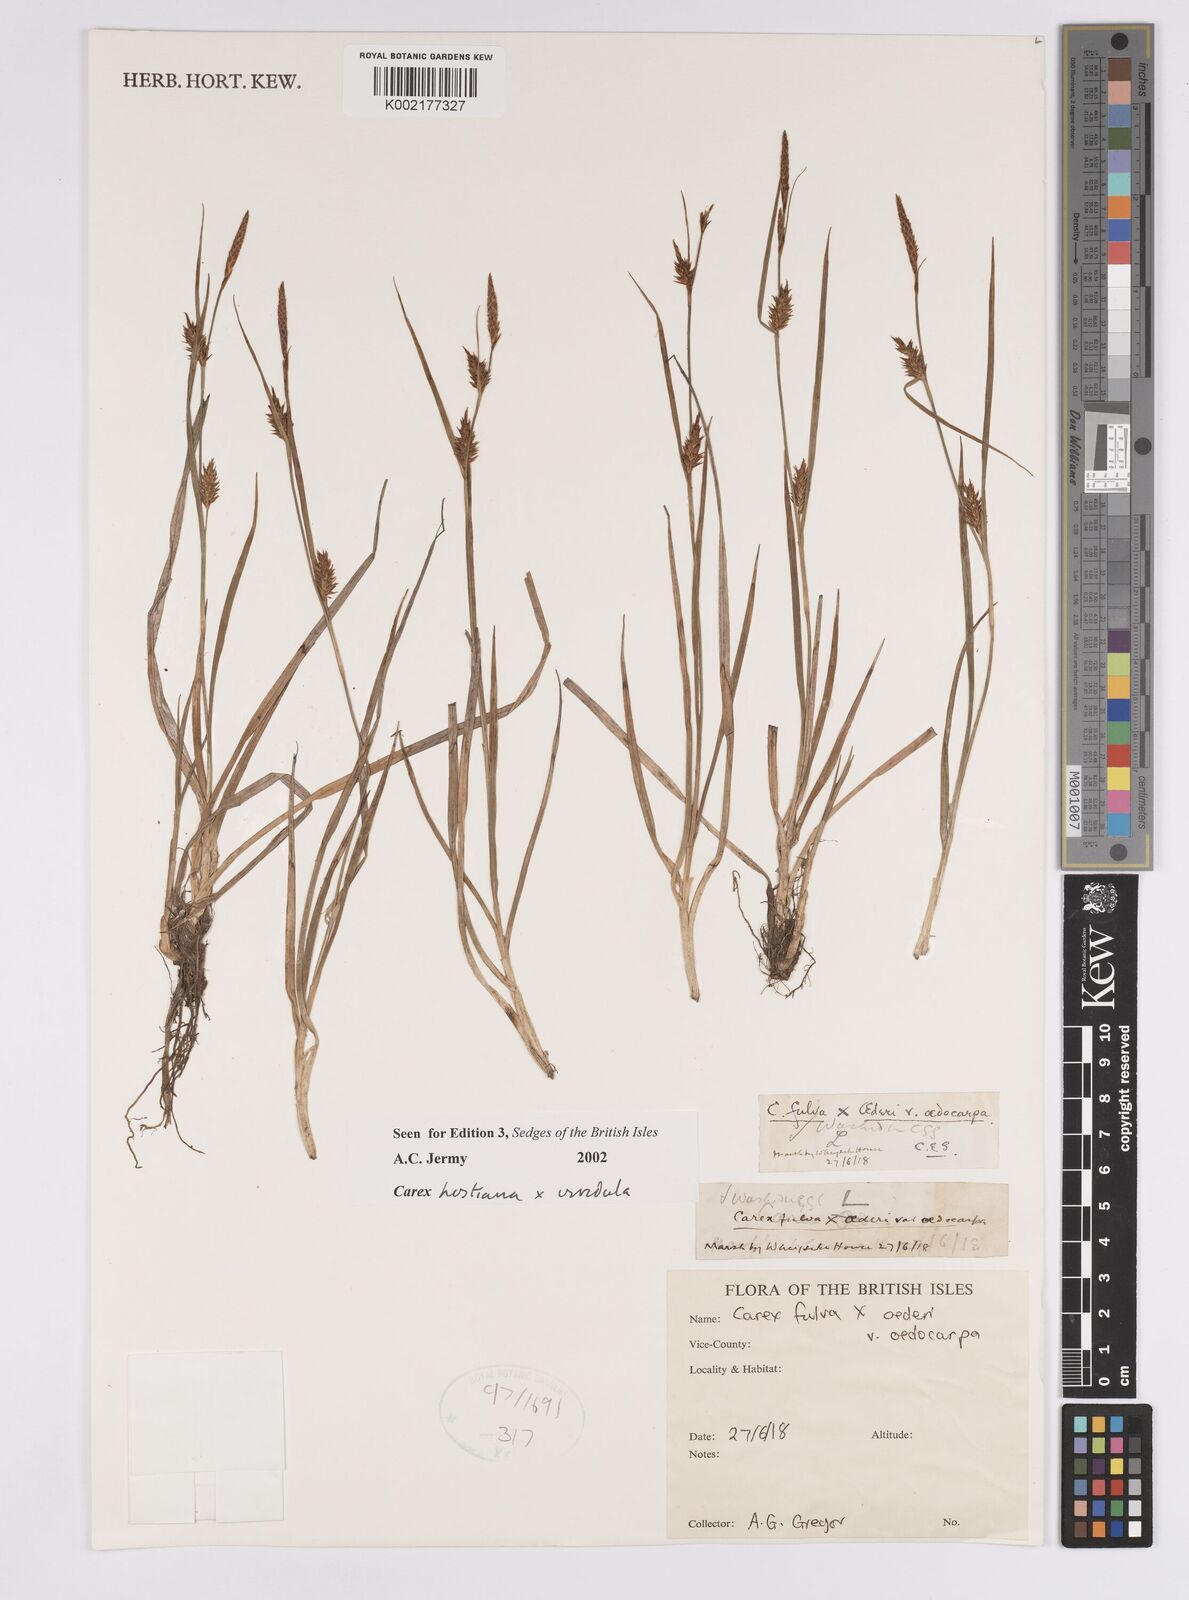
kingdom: Plantae
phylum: Tracheophyta
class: Liliopsida
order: Poales
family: Cyperaceae
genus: Carex
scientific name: Carex hostiana
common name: Tawny sedge
